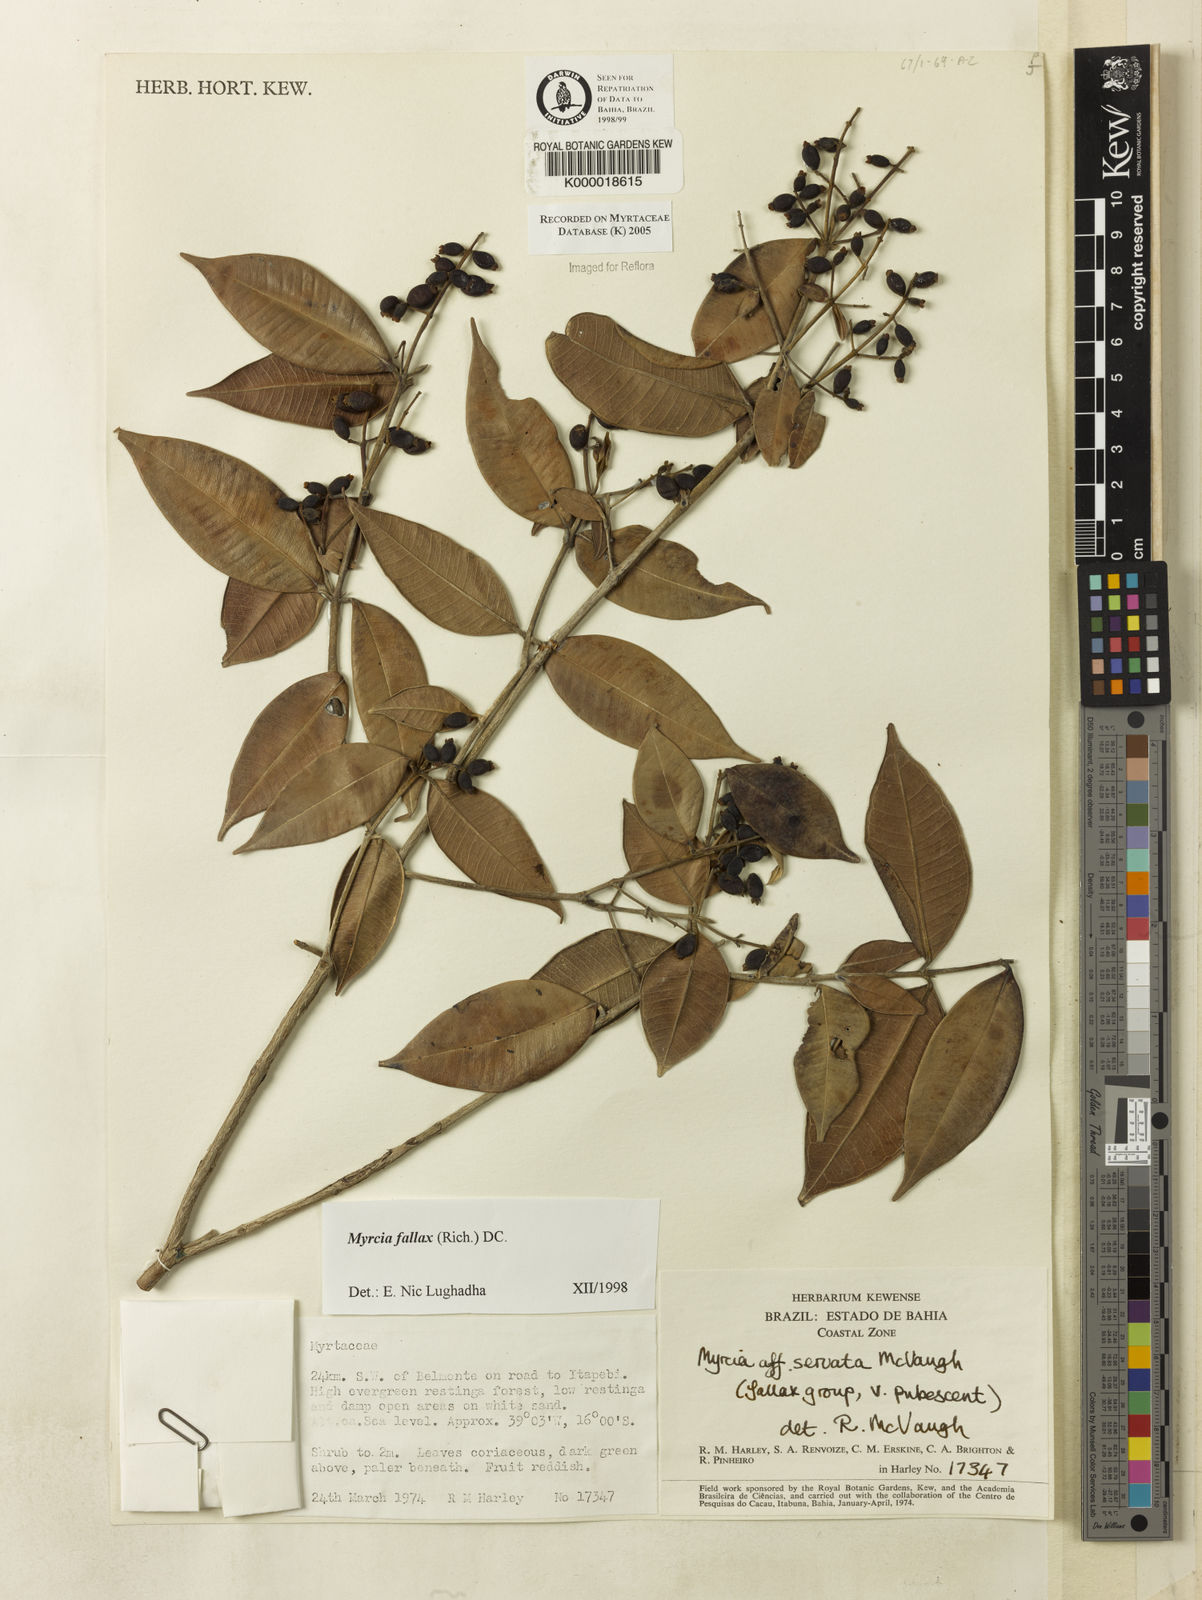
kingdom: Plantae
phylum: Tracheophyta
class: Magnoliopsida
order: Myrtales
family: Myrtaceae
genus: Myrcia
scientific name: Myrcia splendens
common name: Surinam cherry
